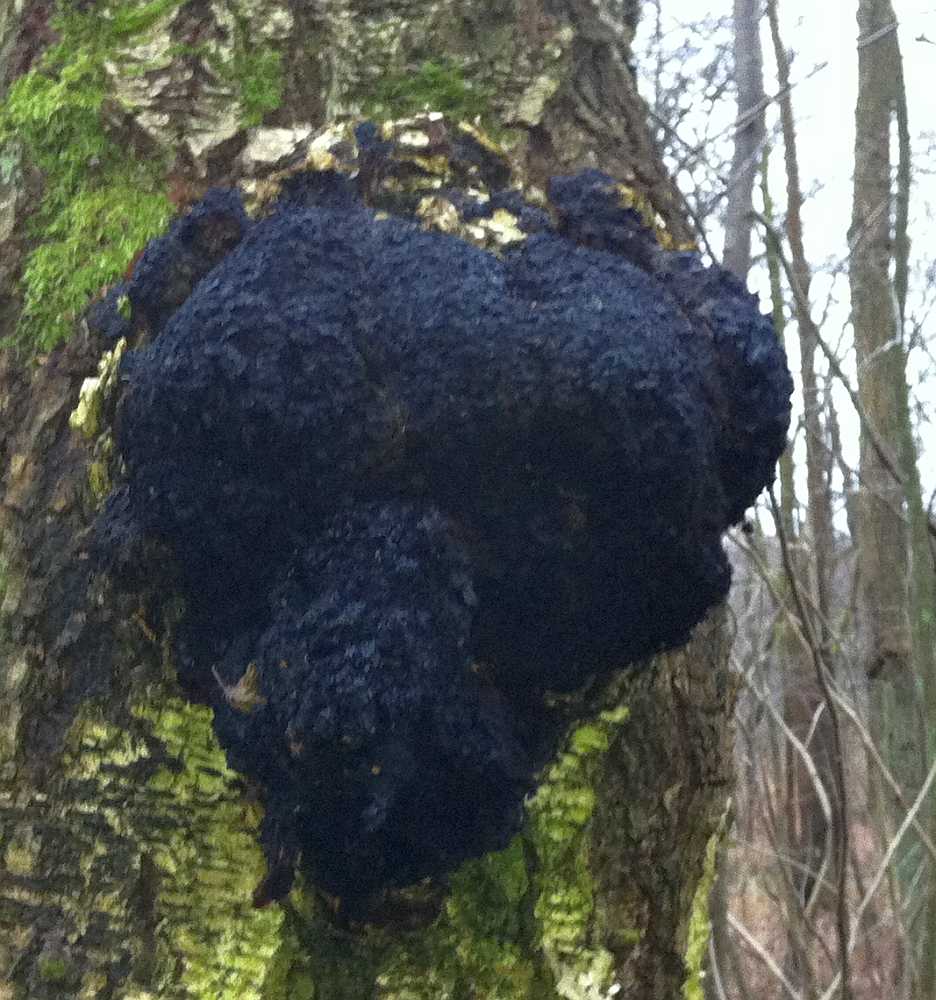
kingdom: Fungi
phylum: Basidiomycota
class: Agaricomycetes
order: Hymenochaetales
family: Hymenochaetaceae
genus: Inonotus
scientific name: Inonotus obliquus
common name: birke-spejlporesvamp
